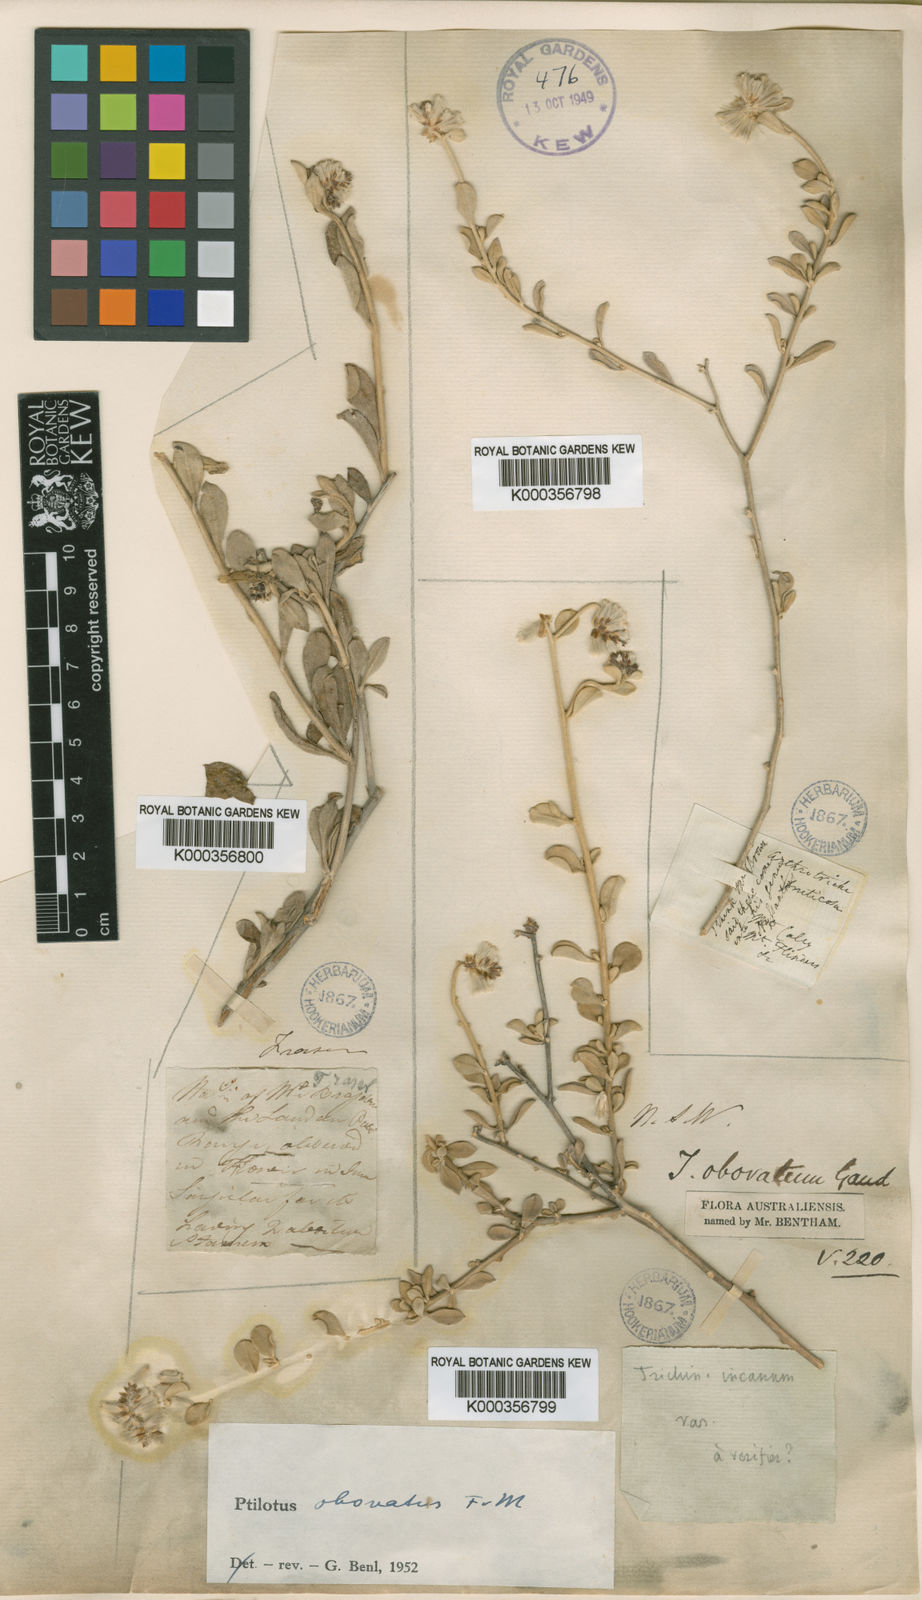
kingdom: Plantae
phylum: Tracheophyta
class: Magnoliopsida
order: Caryophyllales
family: Amaranthaceae
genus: Ptilotus
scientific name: Ptilotus obovatus
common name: Cottonbush
